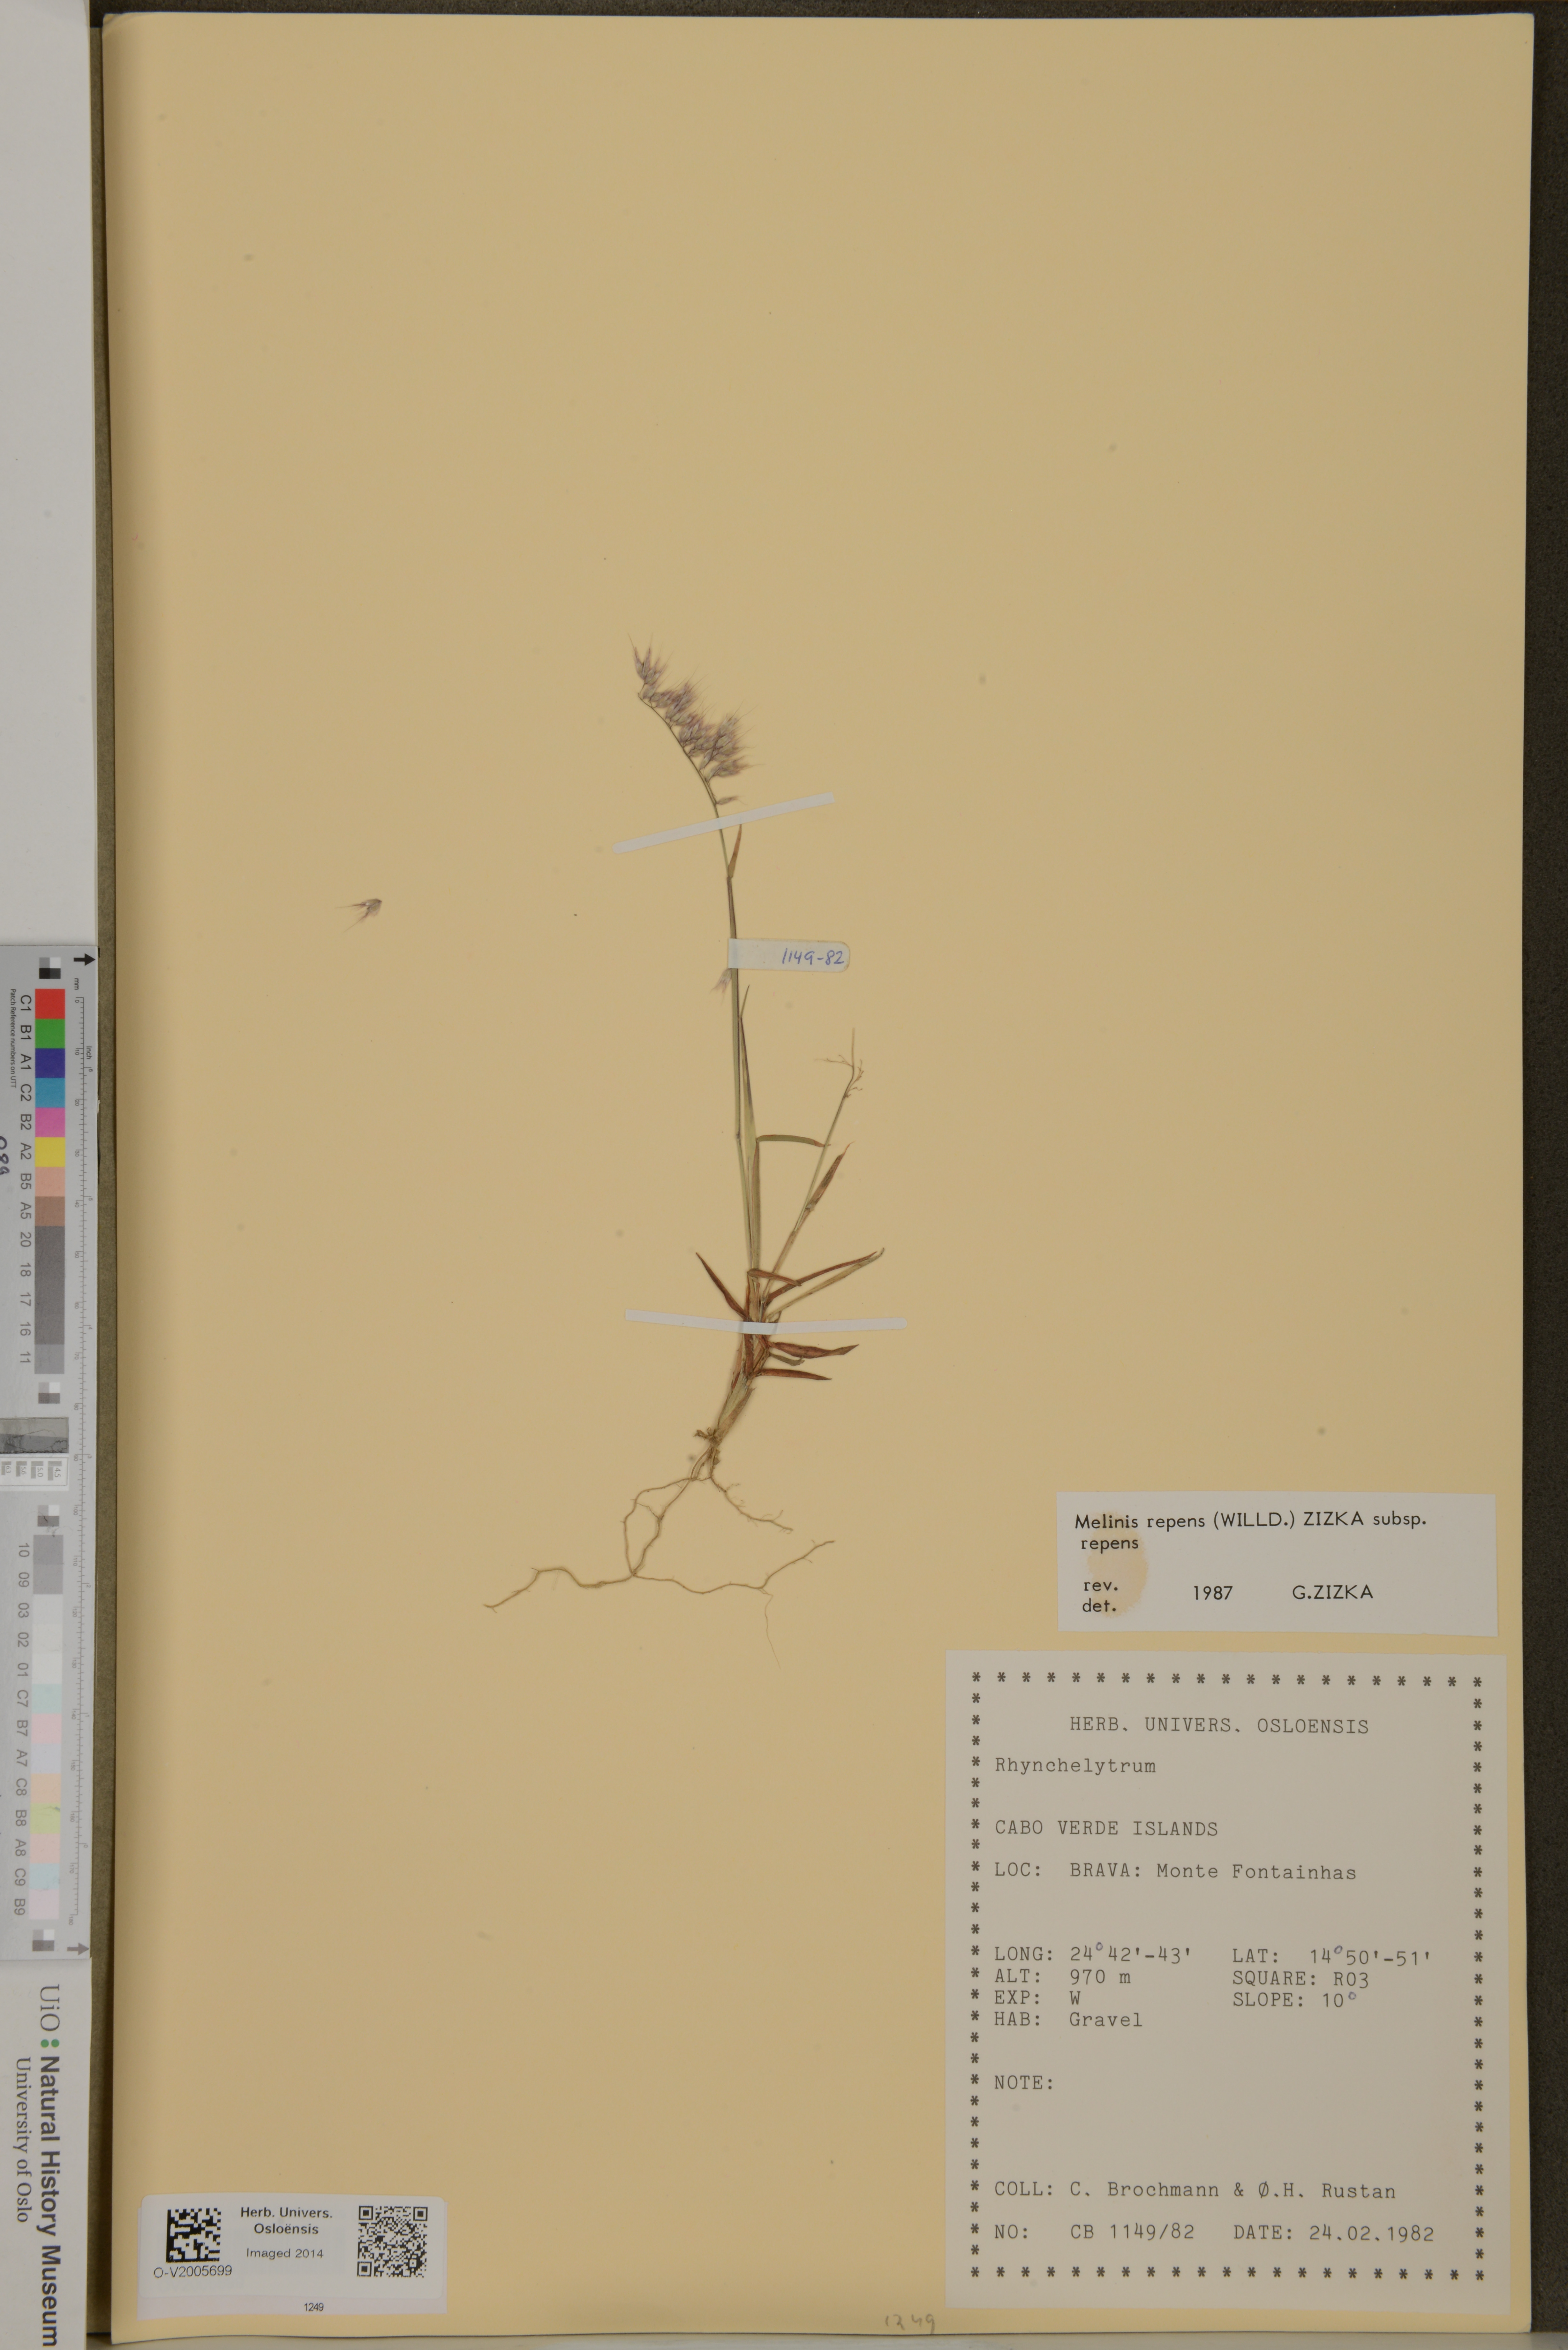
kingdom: Plantae
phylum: Tracheophyta
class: Liliopsida
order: Poales
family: Poaceae
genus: Melinis
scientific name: Melinis repens
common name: Rose natal grass
